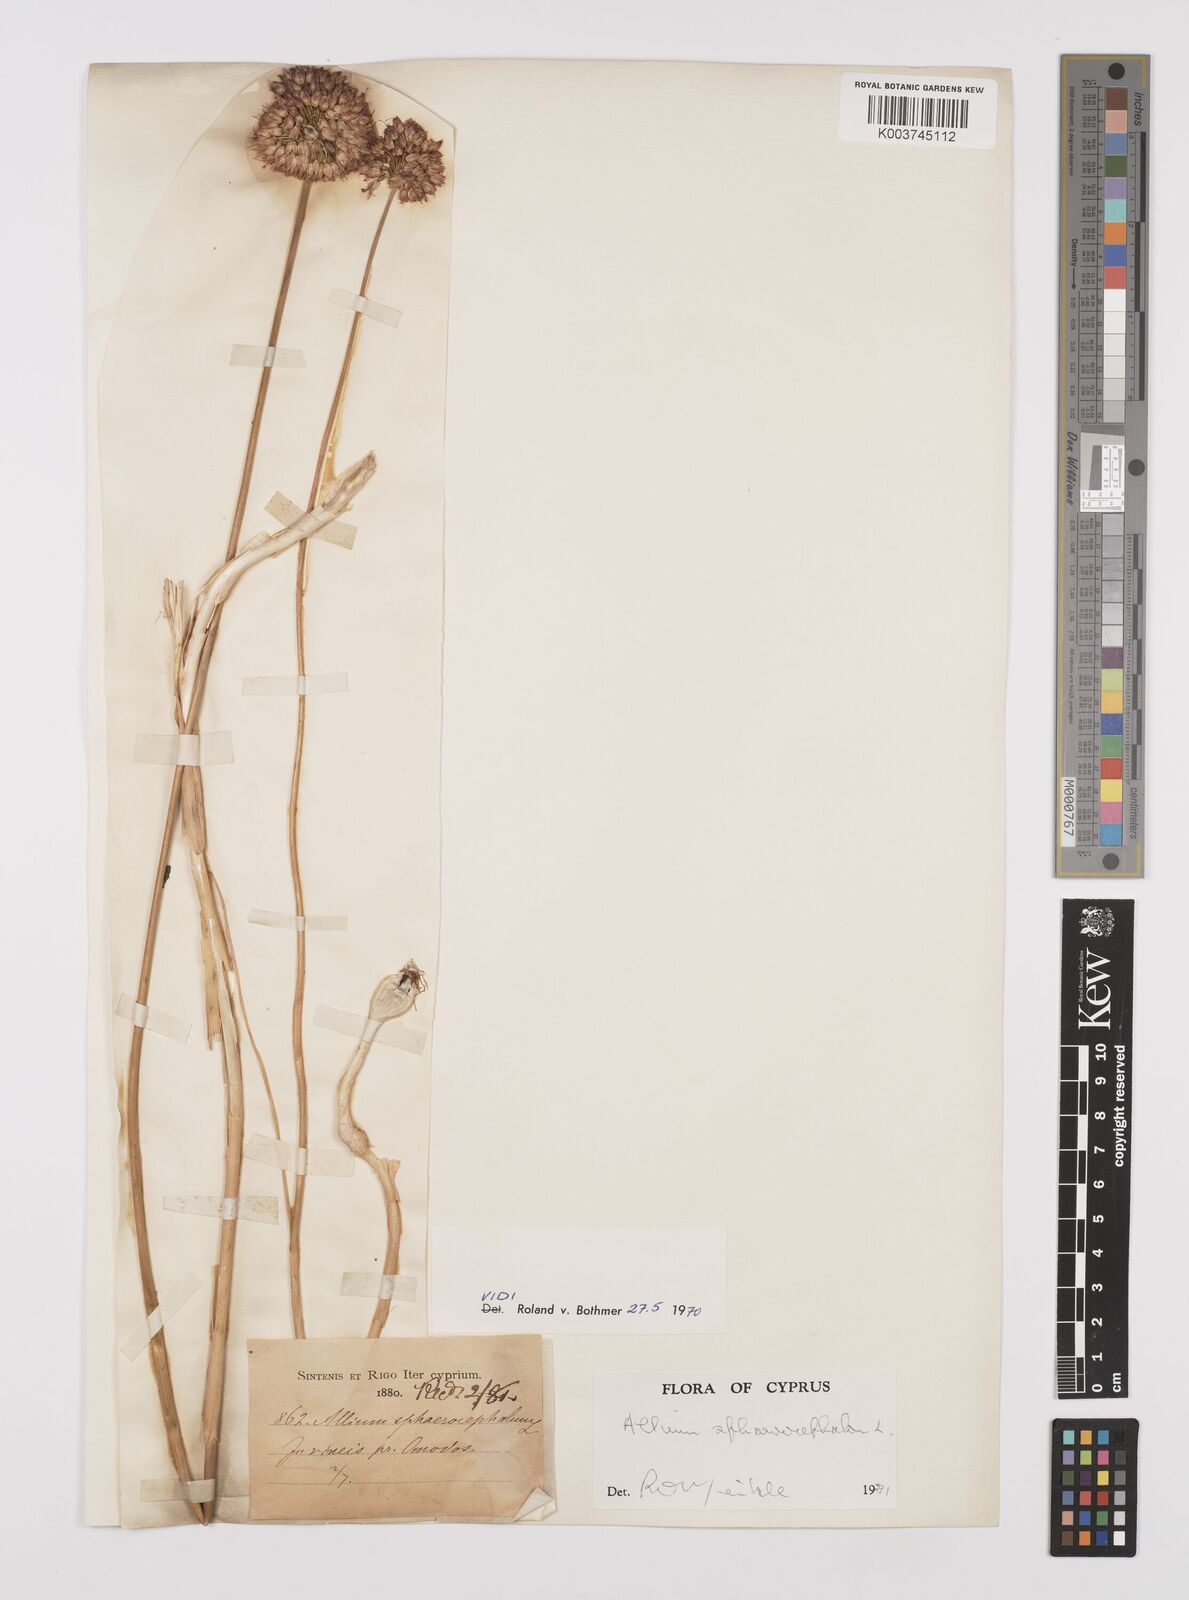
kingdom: Plantae
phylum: Tracheophyta
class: Liliopsida
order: Asparagales
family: Amaryllidaceae
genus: Allium
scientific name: Allium vineale
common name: Crow garlic
